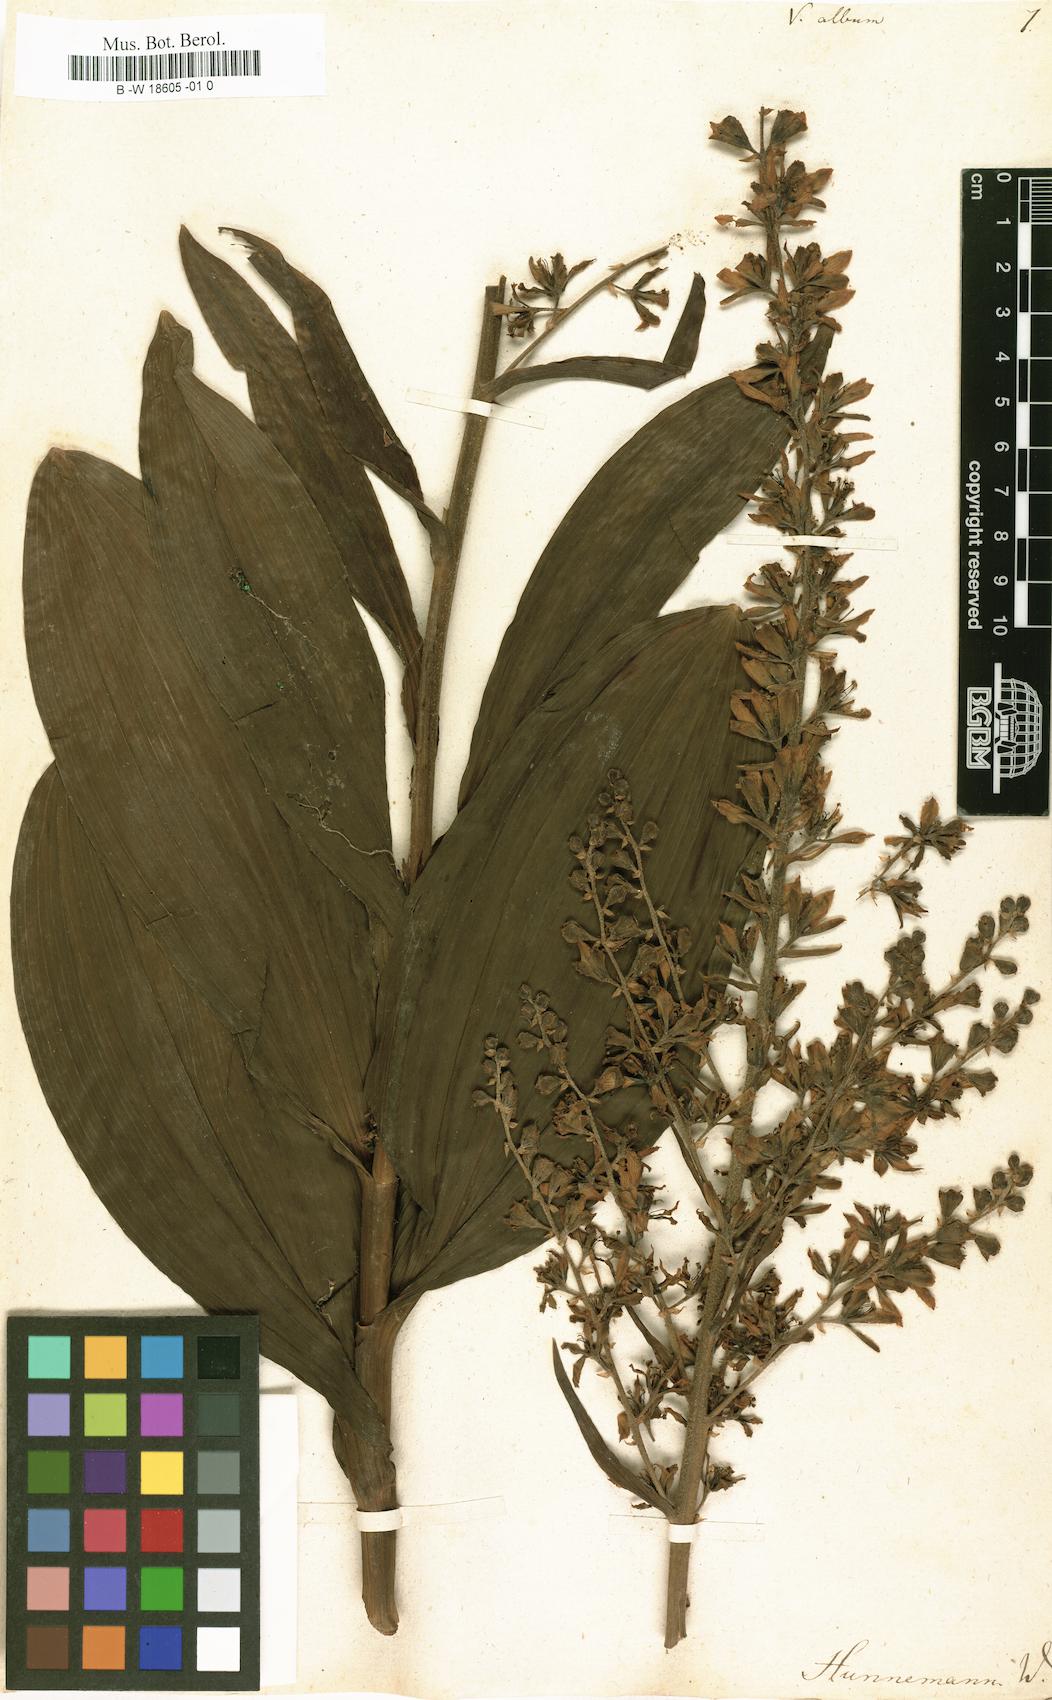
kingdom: Plantae
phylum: Tracheophyta
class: Liliopsida
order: Liliales
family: Melanthiaceae
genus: Veratrum
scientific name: Veratrum album
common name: White veratrum
